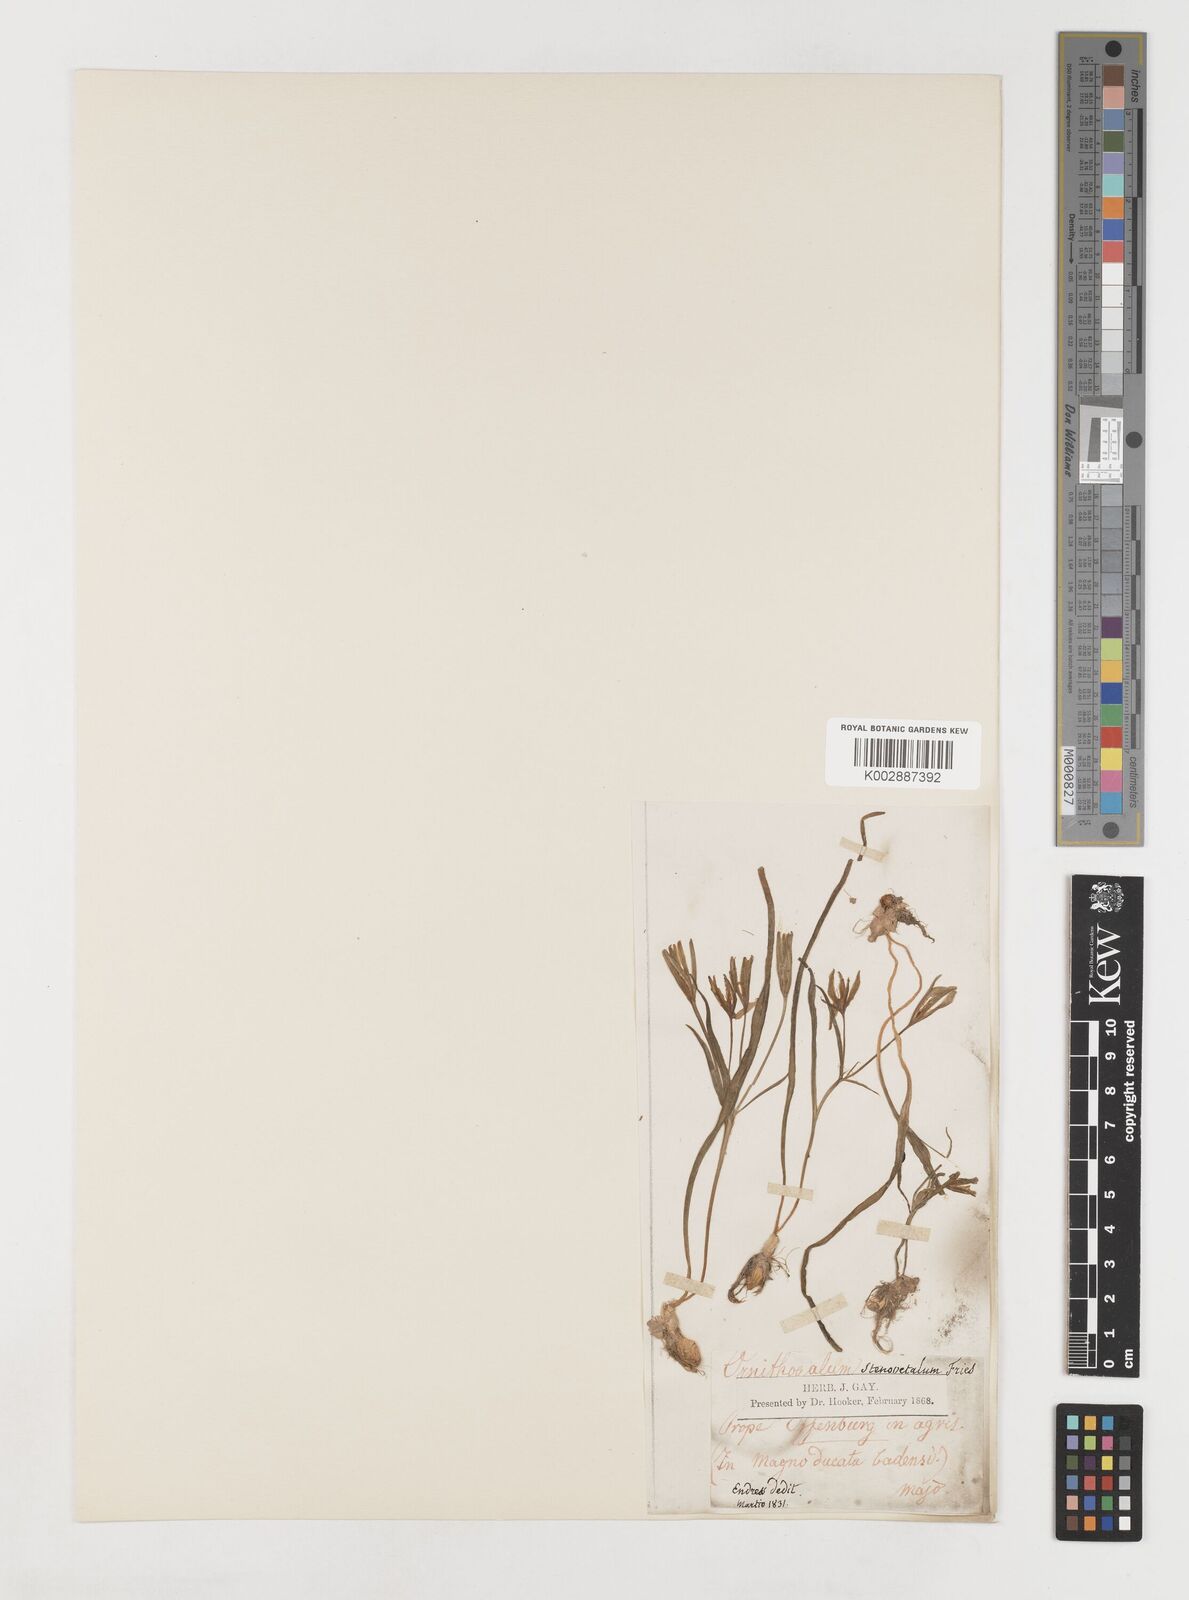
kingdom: Plantae
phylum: Tracheophyta
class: Liliopsida
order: Liliales
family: Liliaceae
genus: Gagea
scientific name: Gagea pratensis
